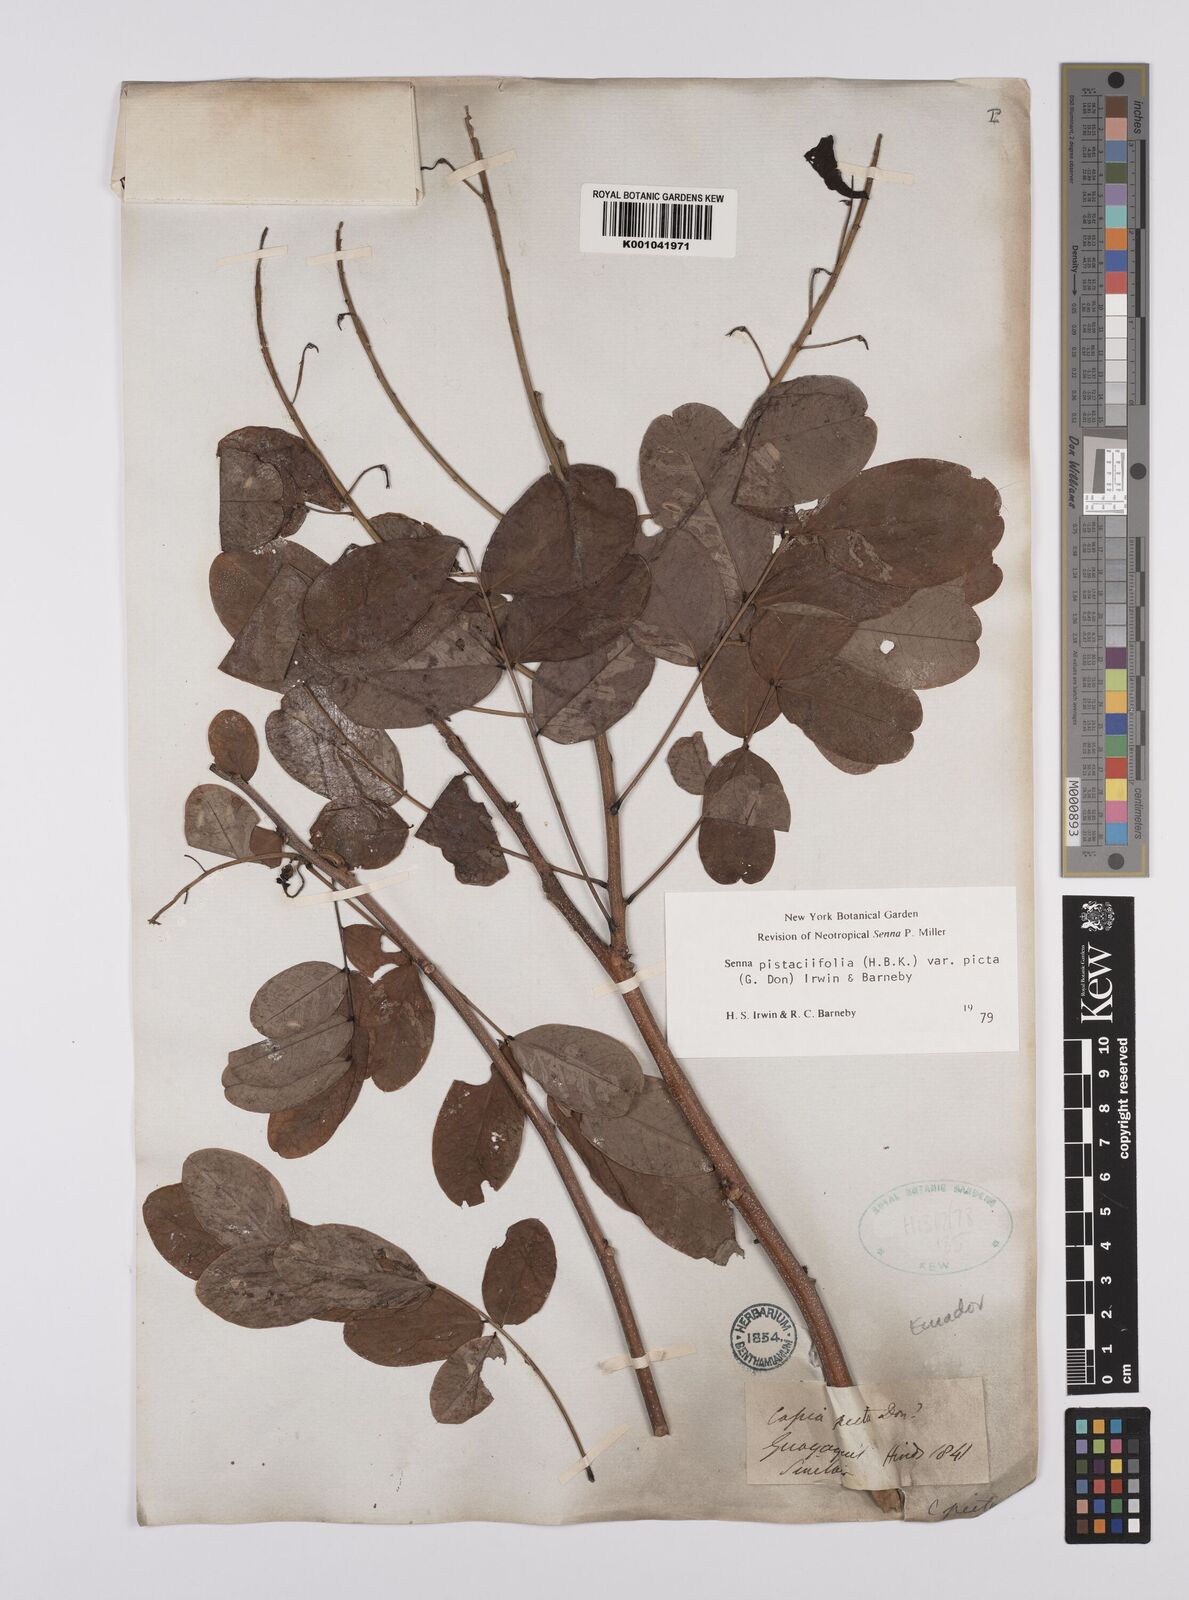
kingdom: Plantae
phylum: Tracheophyta
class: Magnoliopsida
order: Fabales
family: Fabaceae
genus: Senna
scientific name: Senna pistaciifolia
